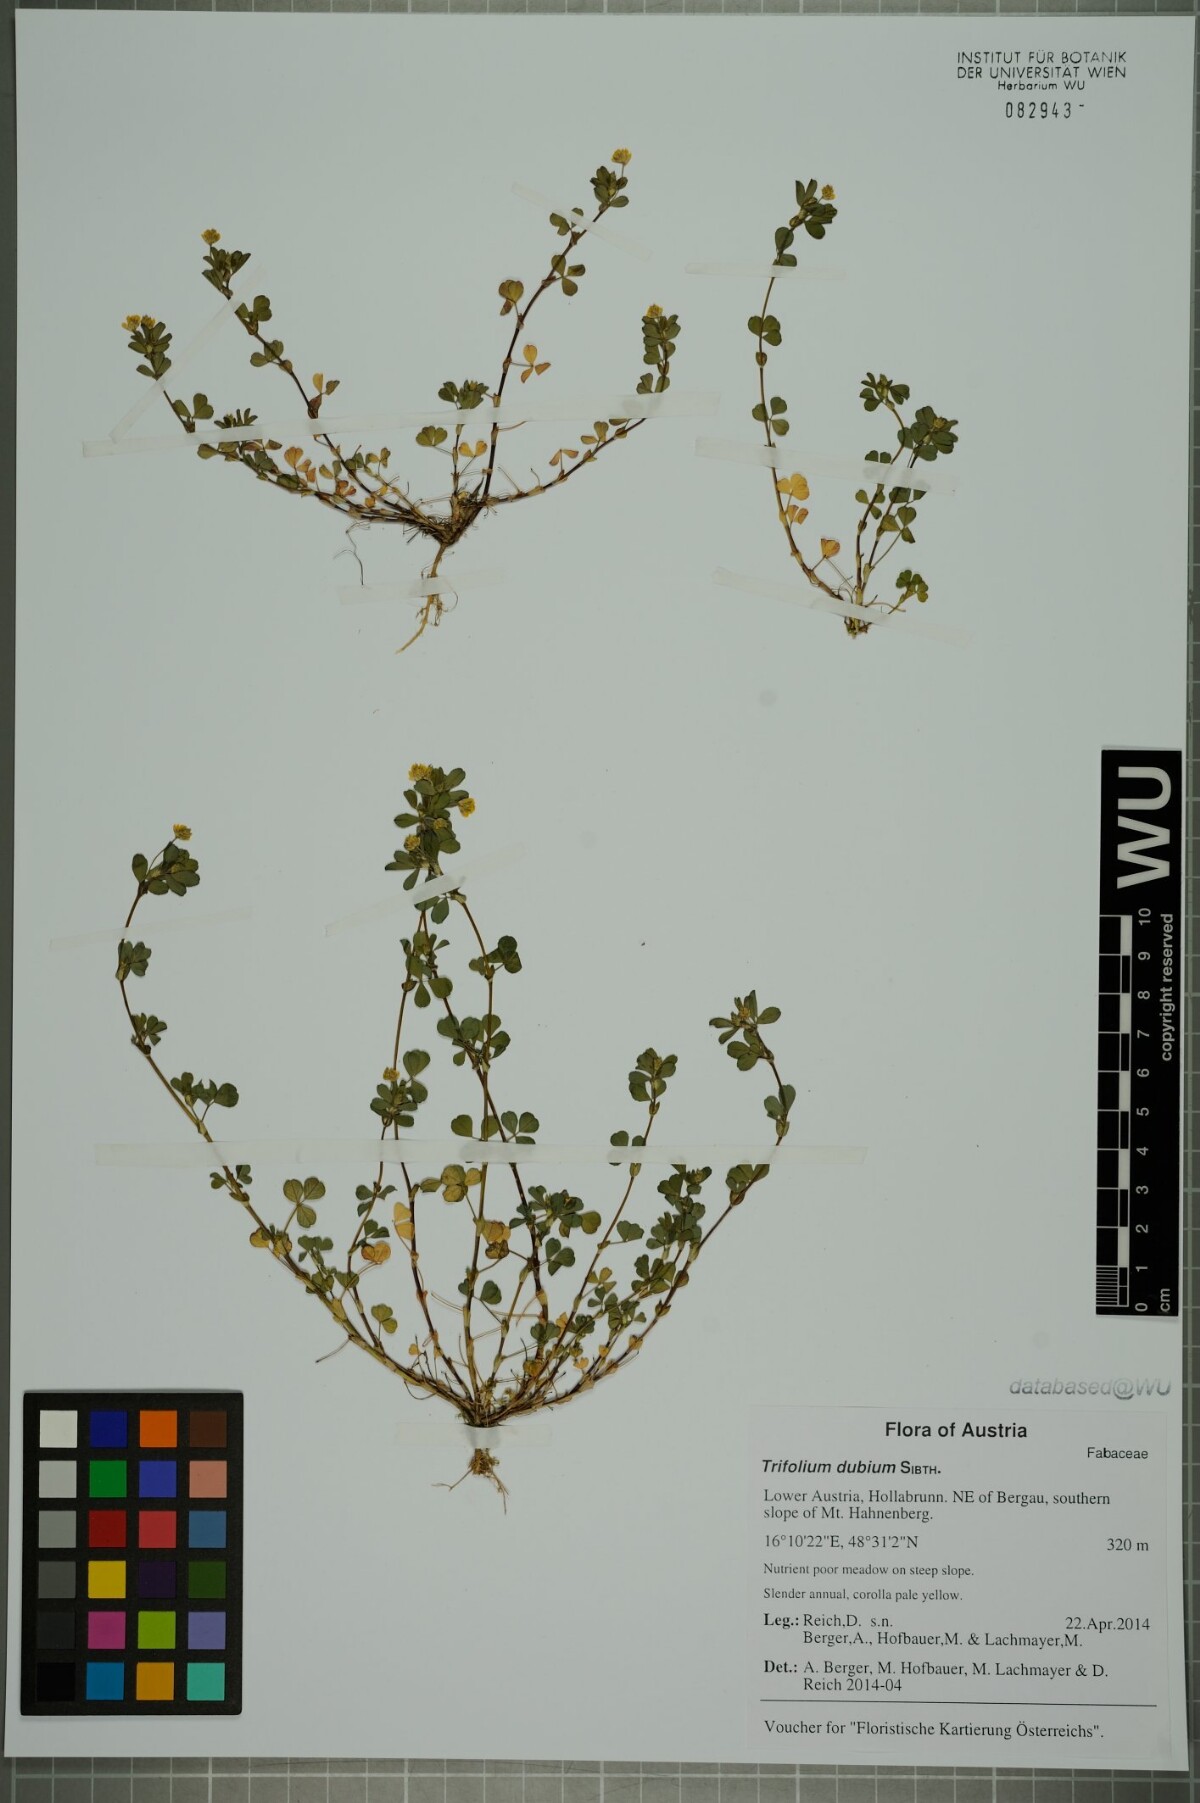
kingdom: Plantae
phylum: Tracheophyta
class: Magnoliopsida
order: Fabales
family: Fabaceae
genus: Trifolium
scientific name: Trifolium dubium
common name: Suckling clover
